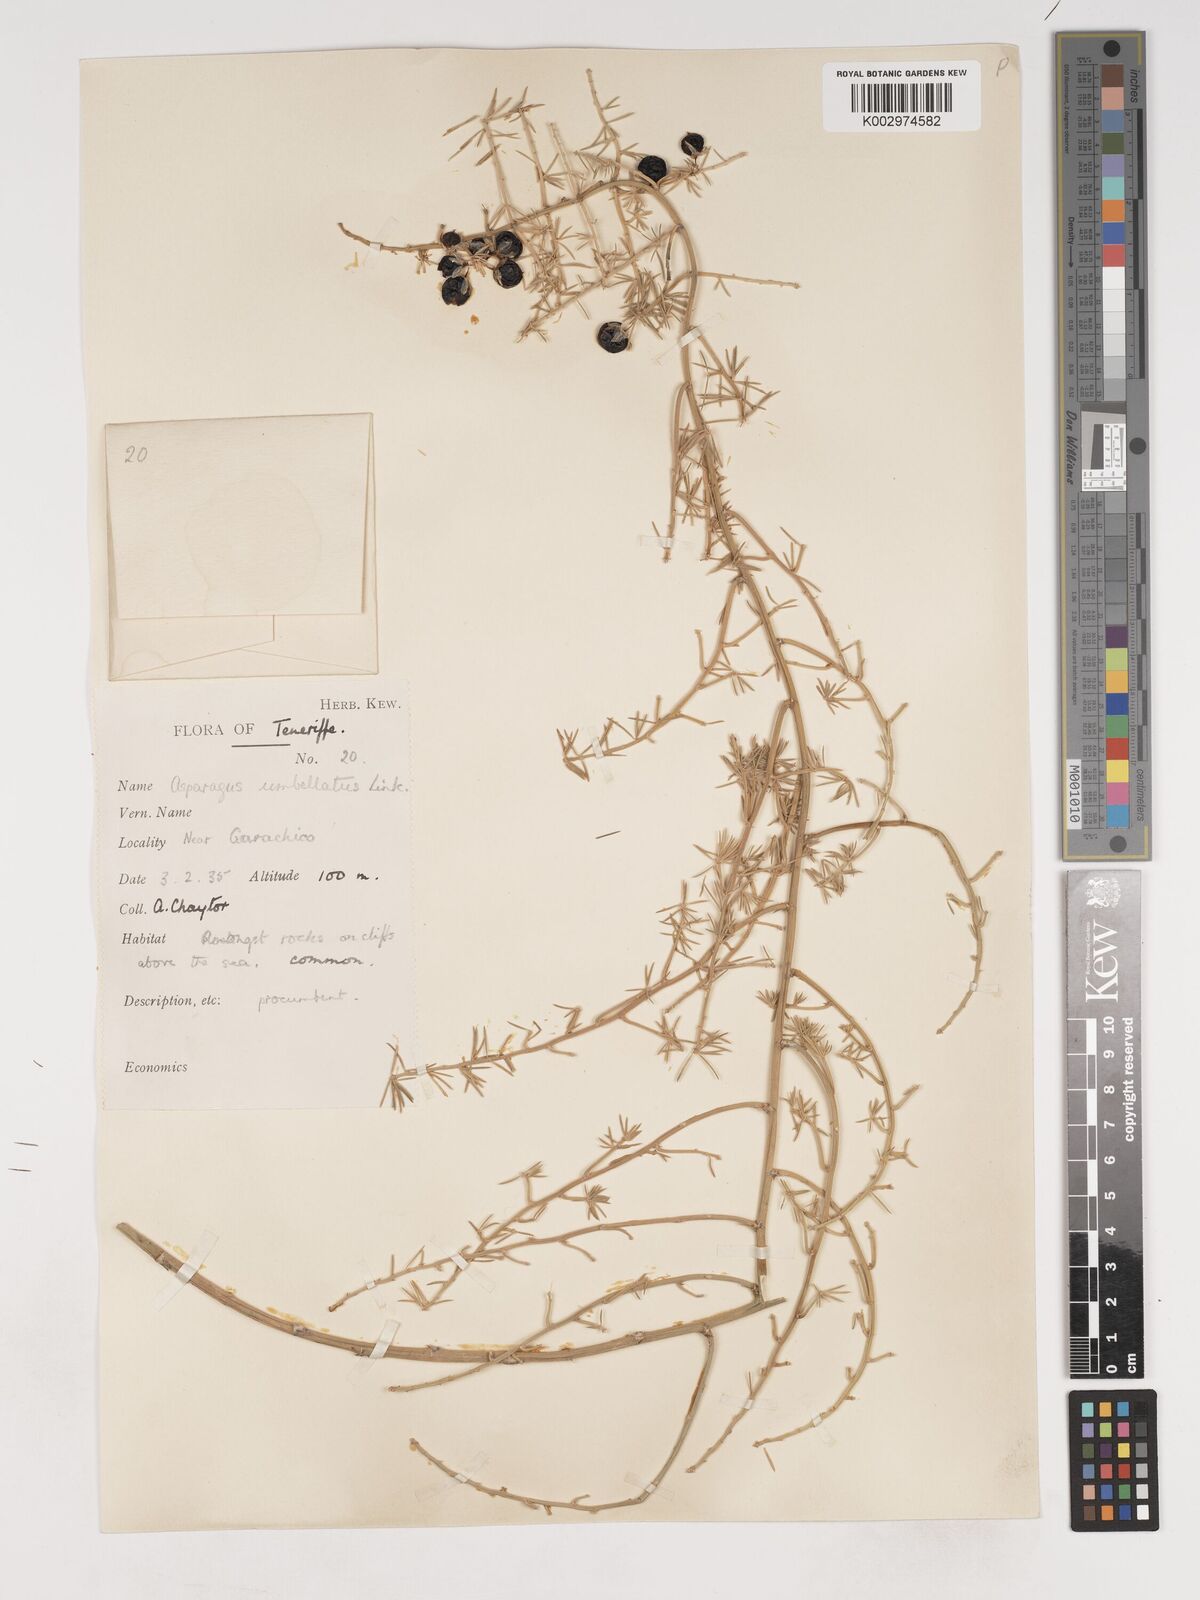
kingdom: Plantae
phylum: Tracheophyta
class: Liliopsida
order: Asparagales
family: Asparagaceae
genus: Asparagus
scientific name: Asparagus umbellatus
